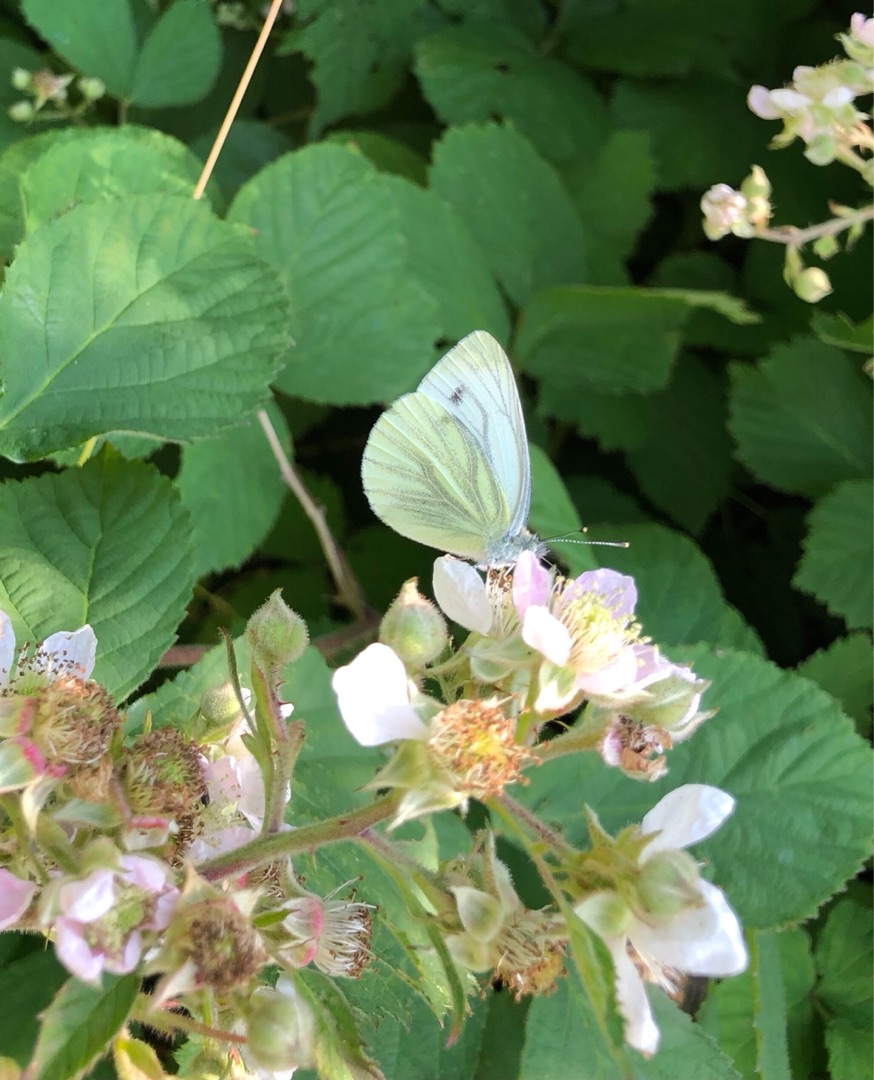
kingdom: Animalia
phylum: Arthropoda
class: Insecta
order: Lepidoptera
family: Pieridae
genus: Pieris
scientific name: Pieris napi
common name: Grønåret kålsommerfugl
